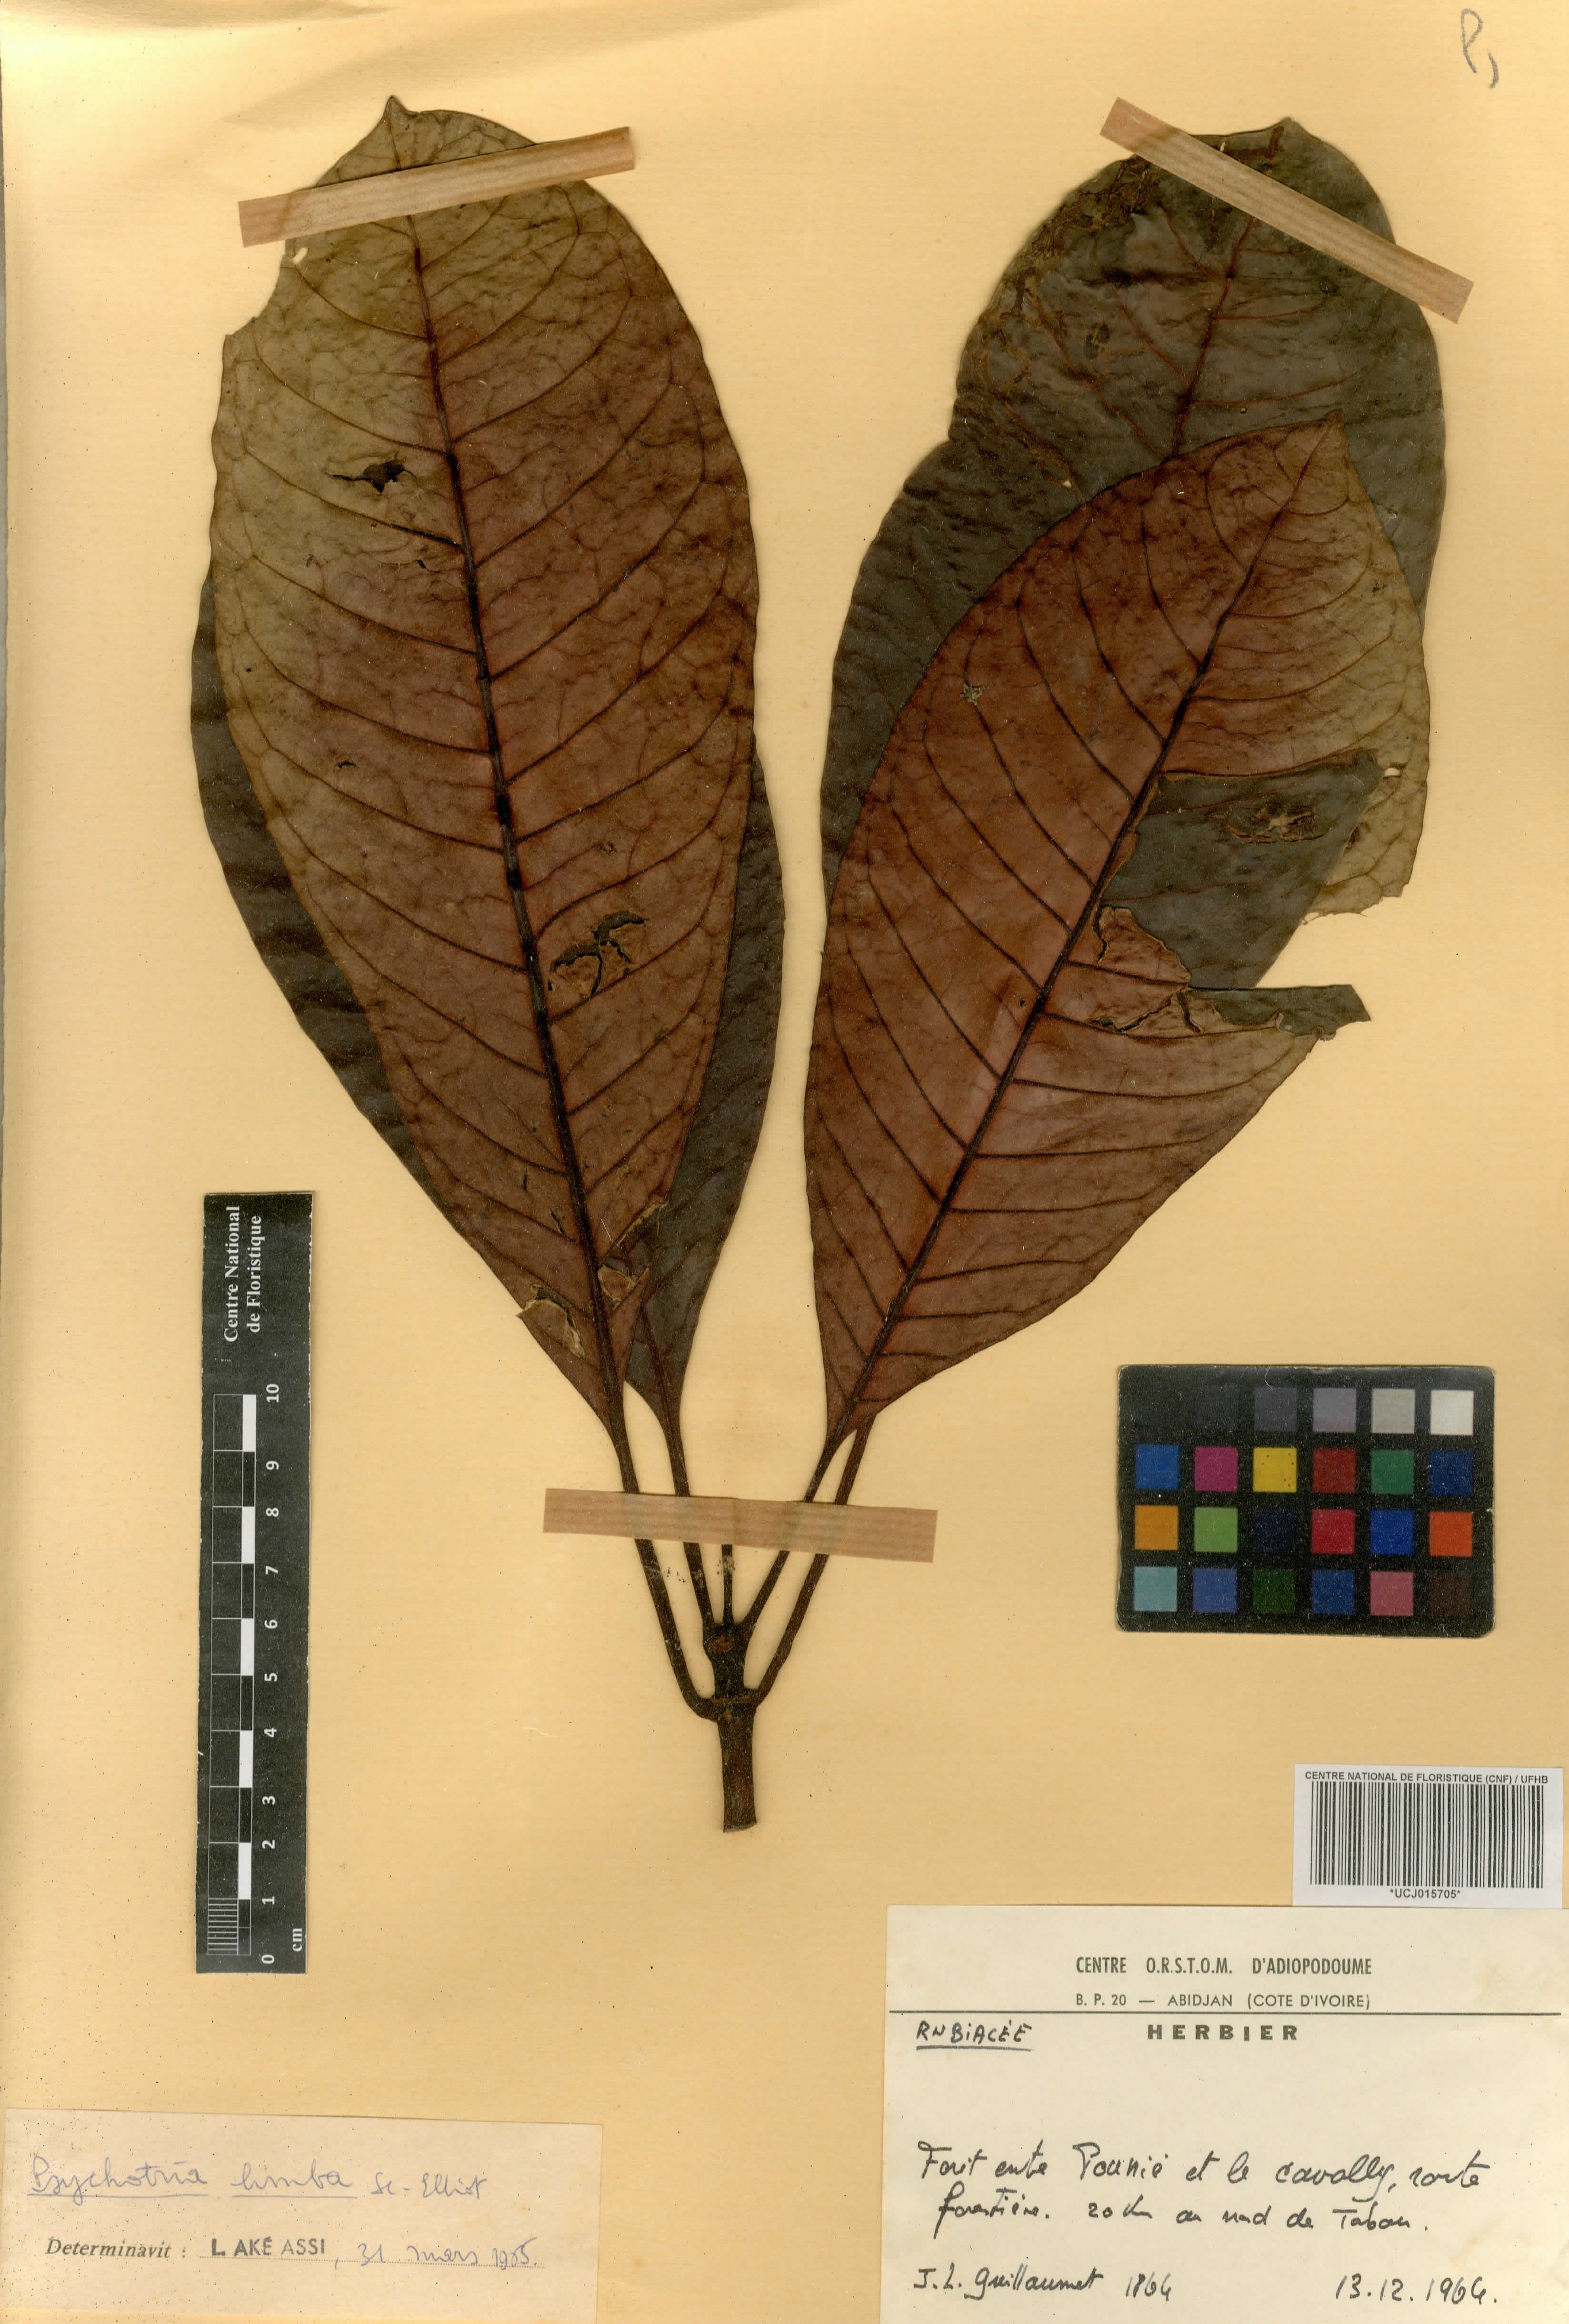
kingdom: Plantae
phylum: Tracheophyta
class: Magnoliopsida
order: Gentianales
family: Rubiaceae
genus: Psychotria
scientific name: Psychotria limba
